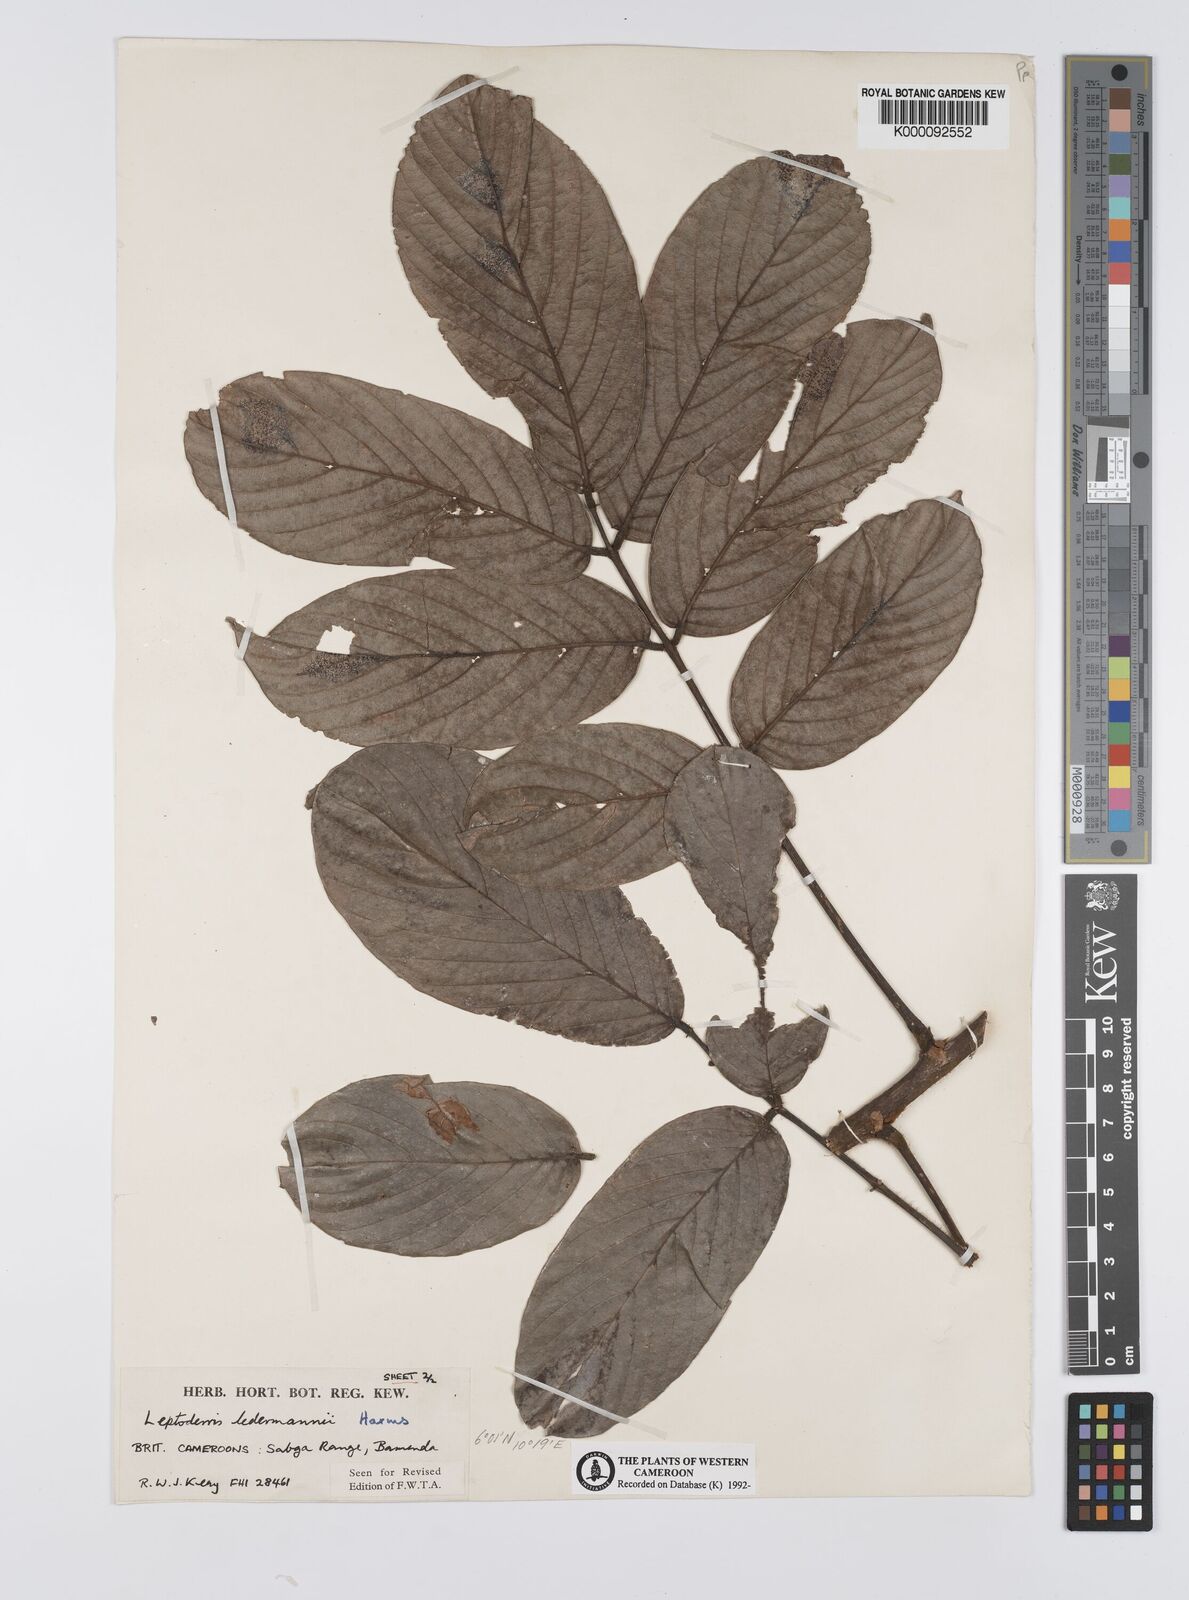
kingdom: Plantae
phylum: Tracheophyta
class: Magnoliopsida
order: Fabales
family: Fabaceae
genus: Leptoderris
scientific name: Leptoderris ledermannii
